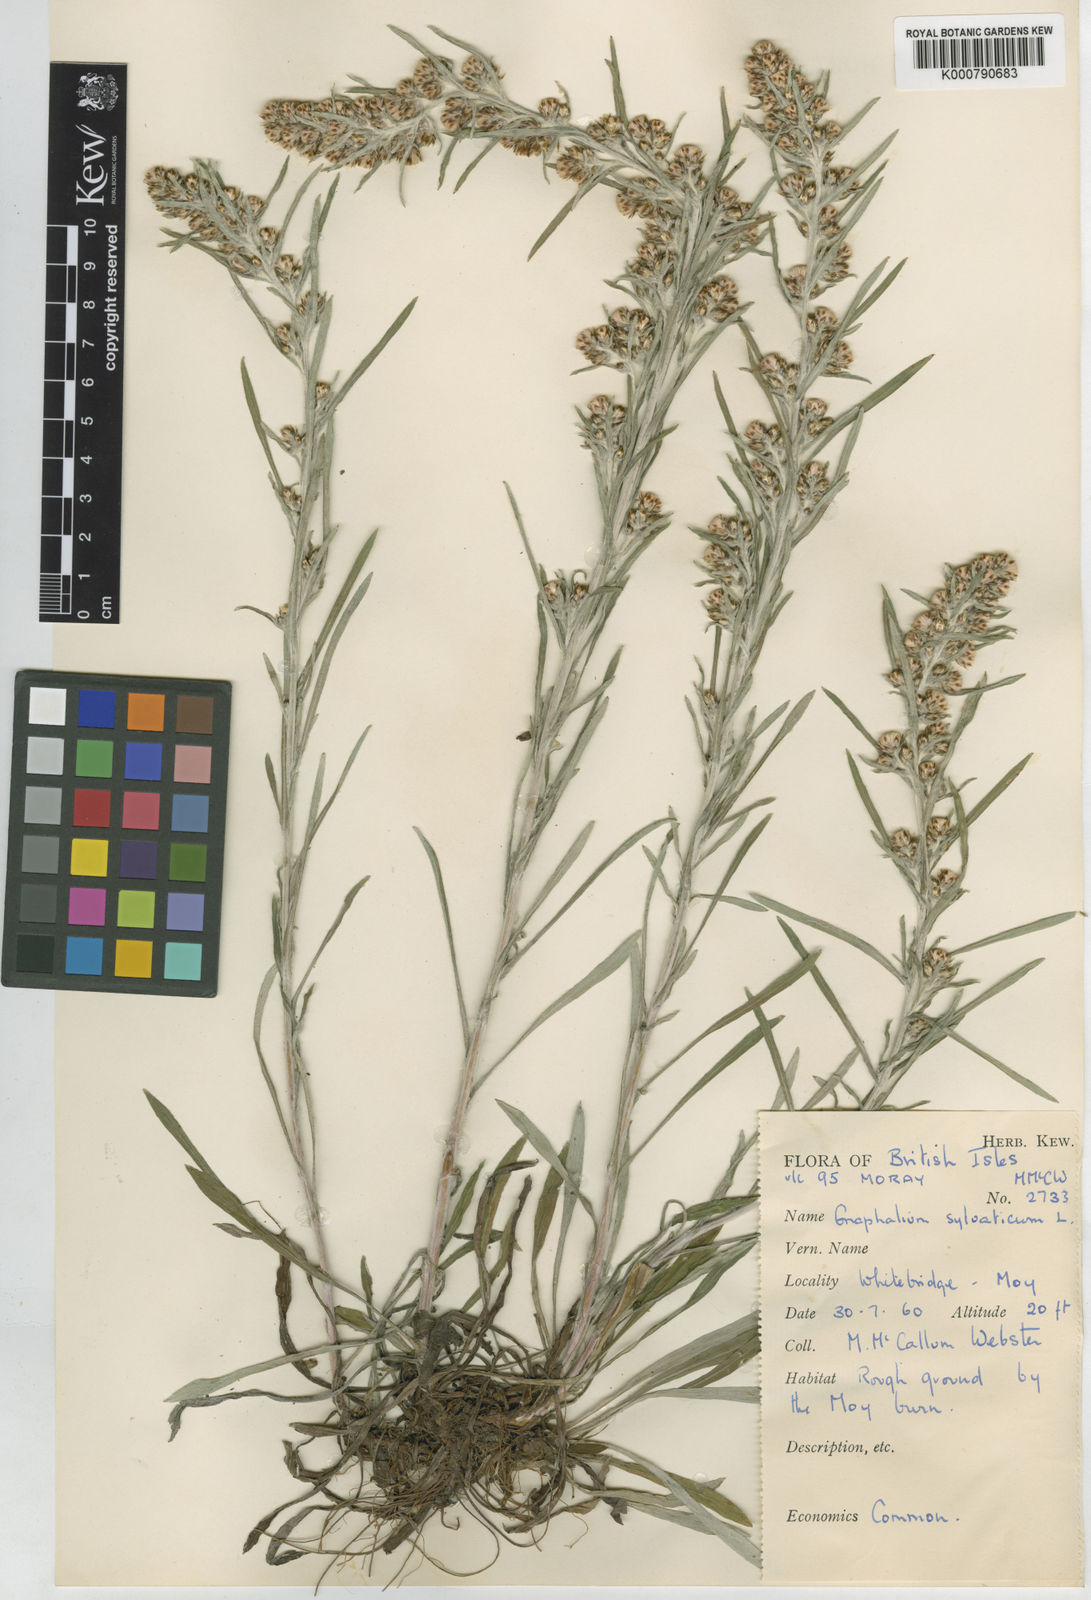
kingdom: Plantae
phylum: Tracheophyta
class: Magnoliopsida
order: Asterales
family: Asteraceae
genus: Omalotheca
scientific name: Omalotheca sylvatica
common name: Heath cudweed
